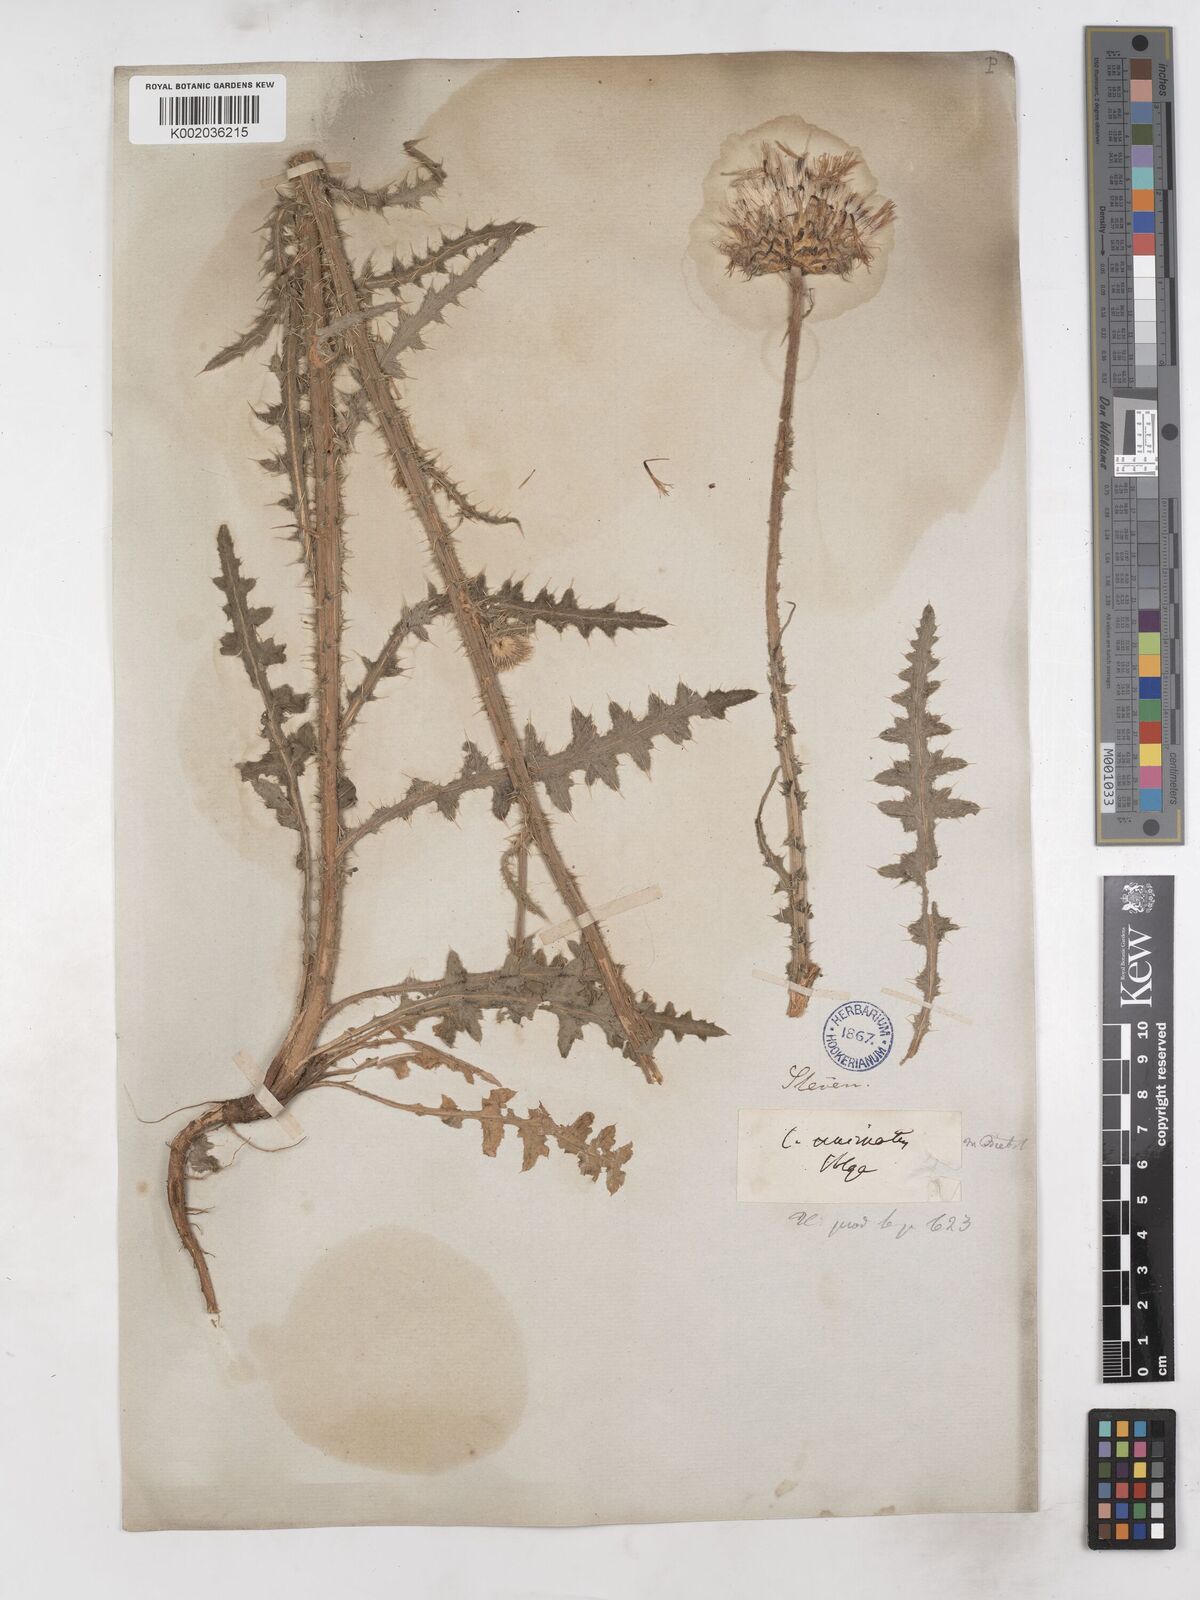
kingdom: Plantae
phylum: Tracheophyta
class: Magnoliopsida
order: Asterales
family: Asteraceae
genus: Carduus
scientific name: Carduus uncinatus
